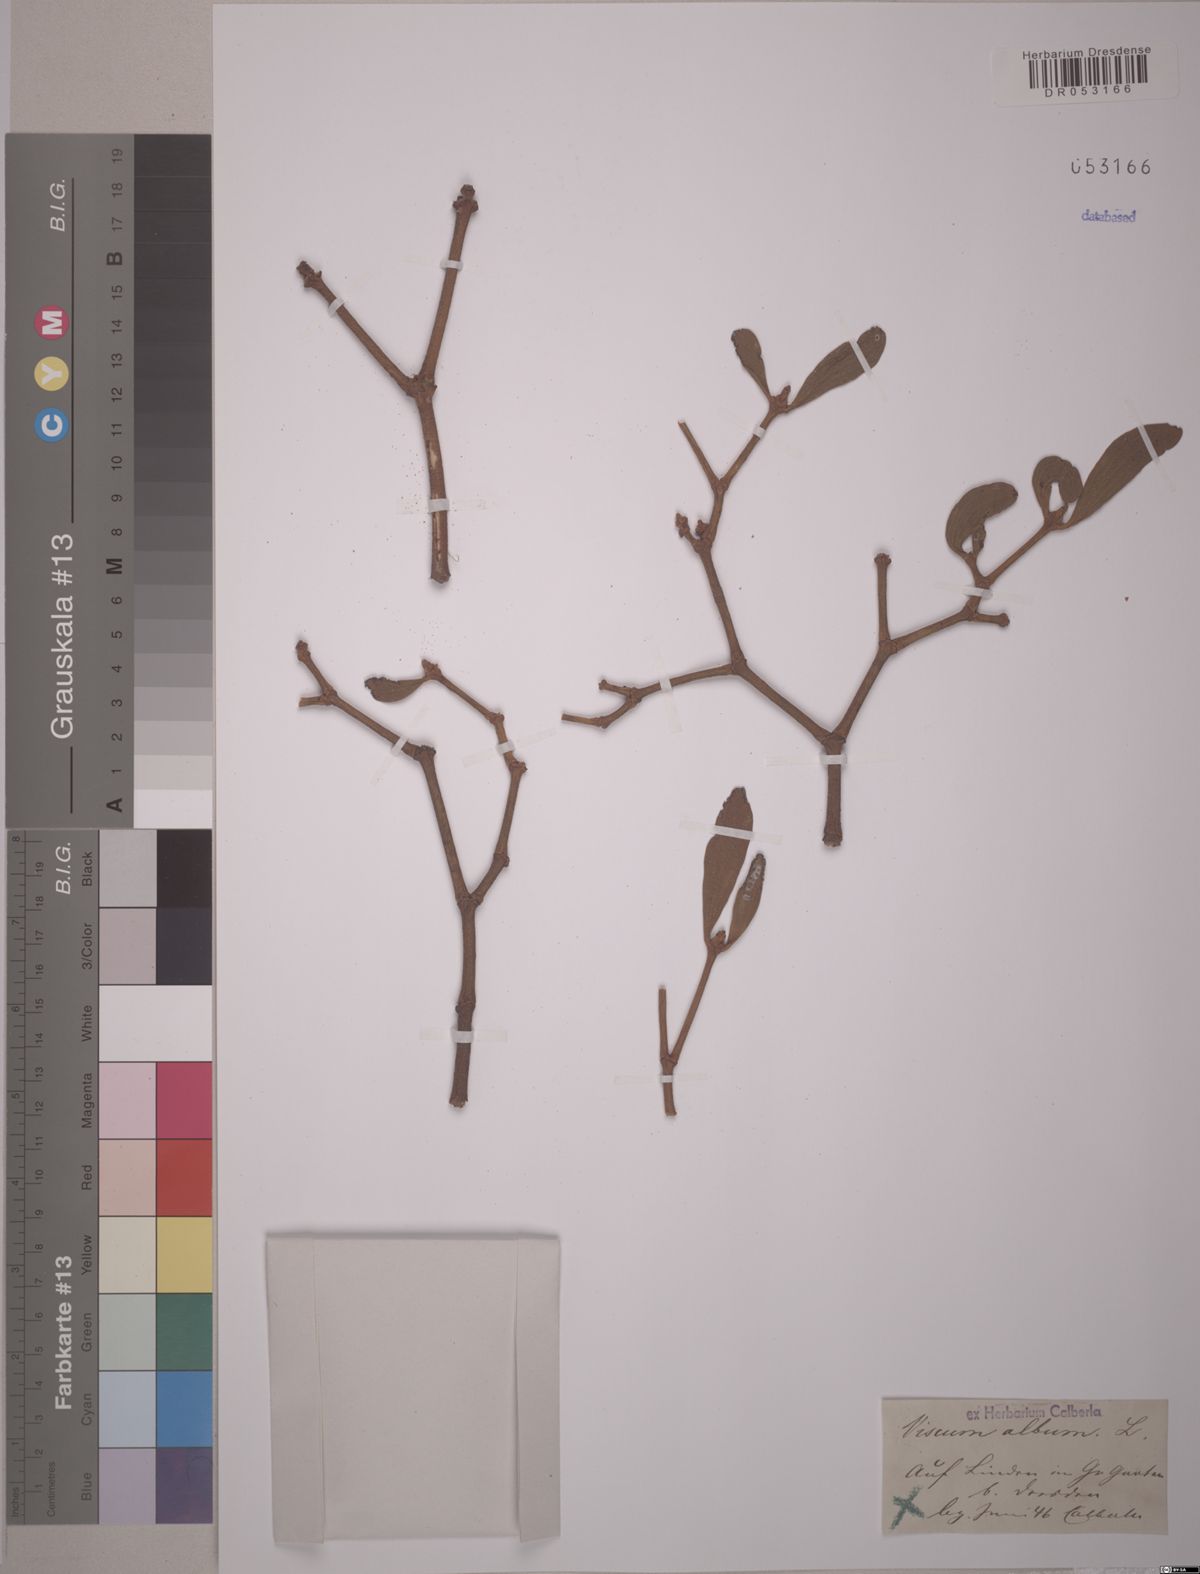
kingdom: Plantae
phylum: Tracheophyta
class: Magnoliopsida
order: Santalales
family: Viscaceae
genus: Viscum
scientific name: Viscum album
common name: Mistletoe
